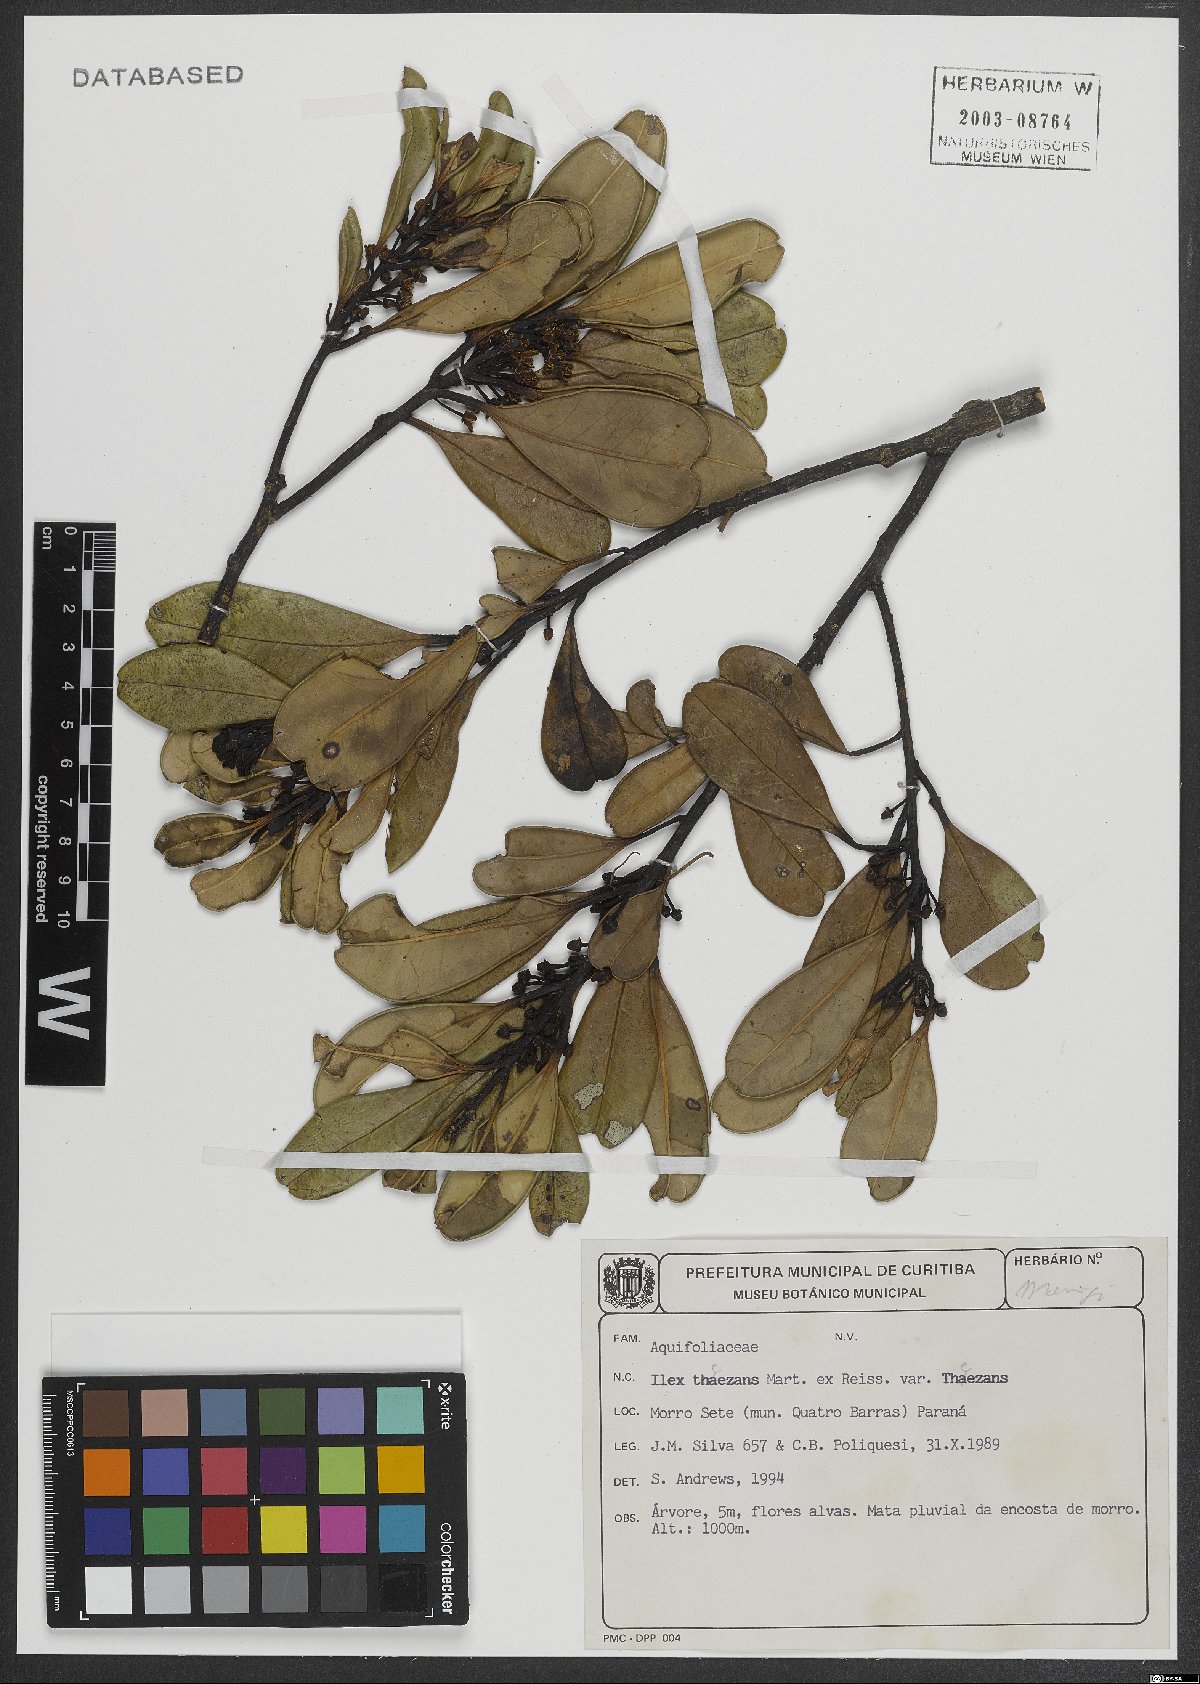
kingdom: Plantae
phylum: Tracheophyta
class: Magnoliopsida
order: Aquifoliales
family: Aquifoliaceae
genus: Ilex
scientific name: Ilex theezans
